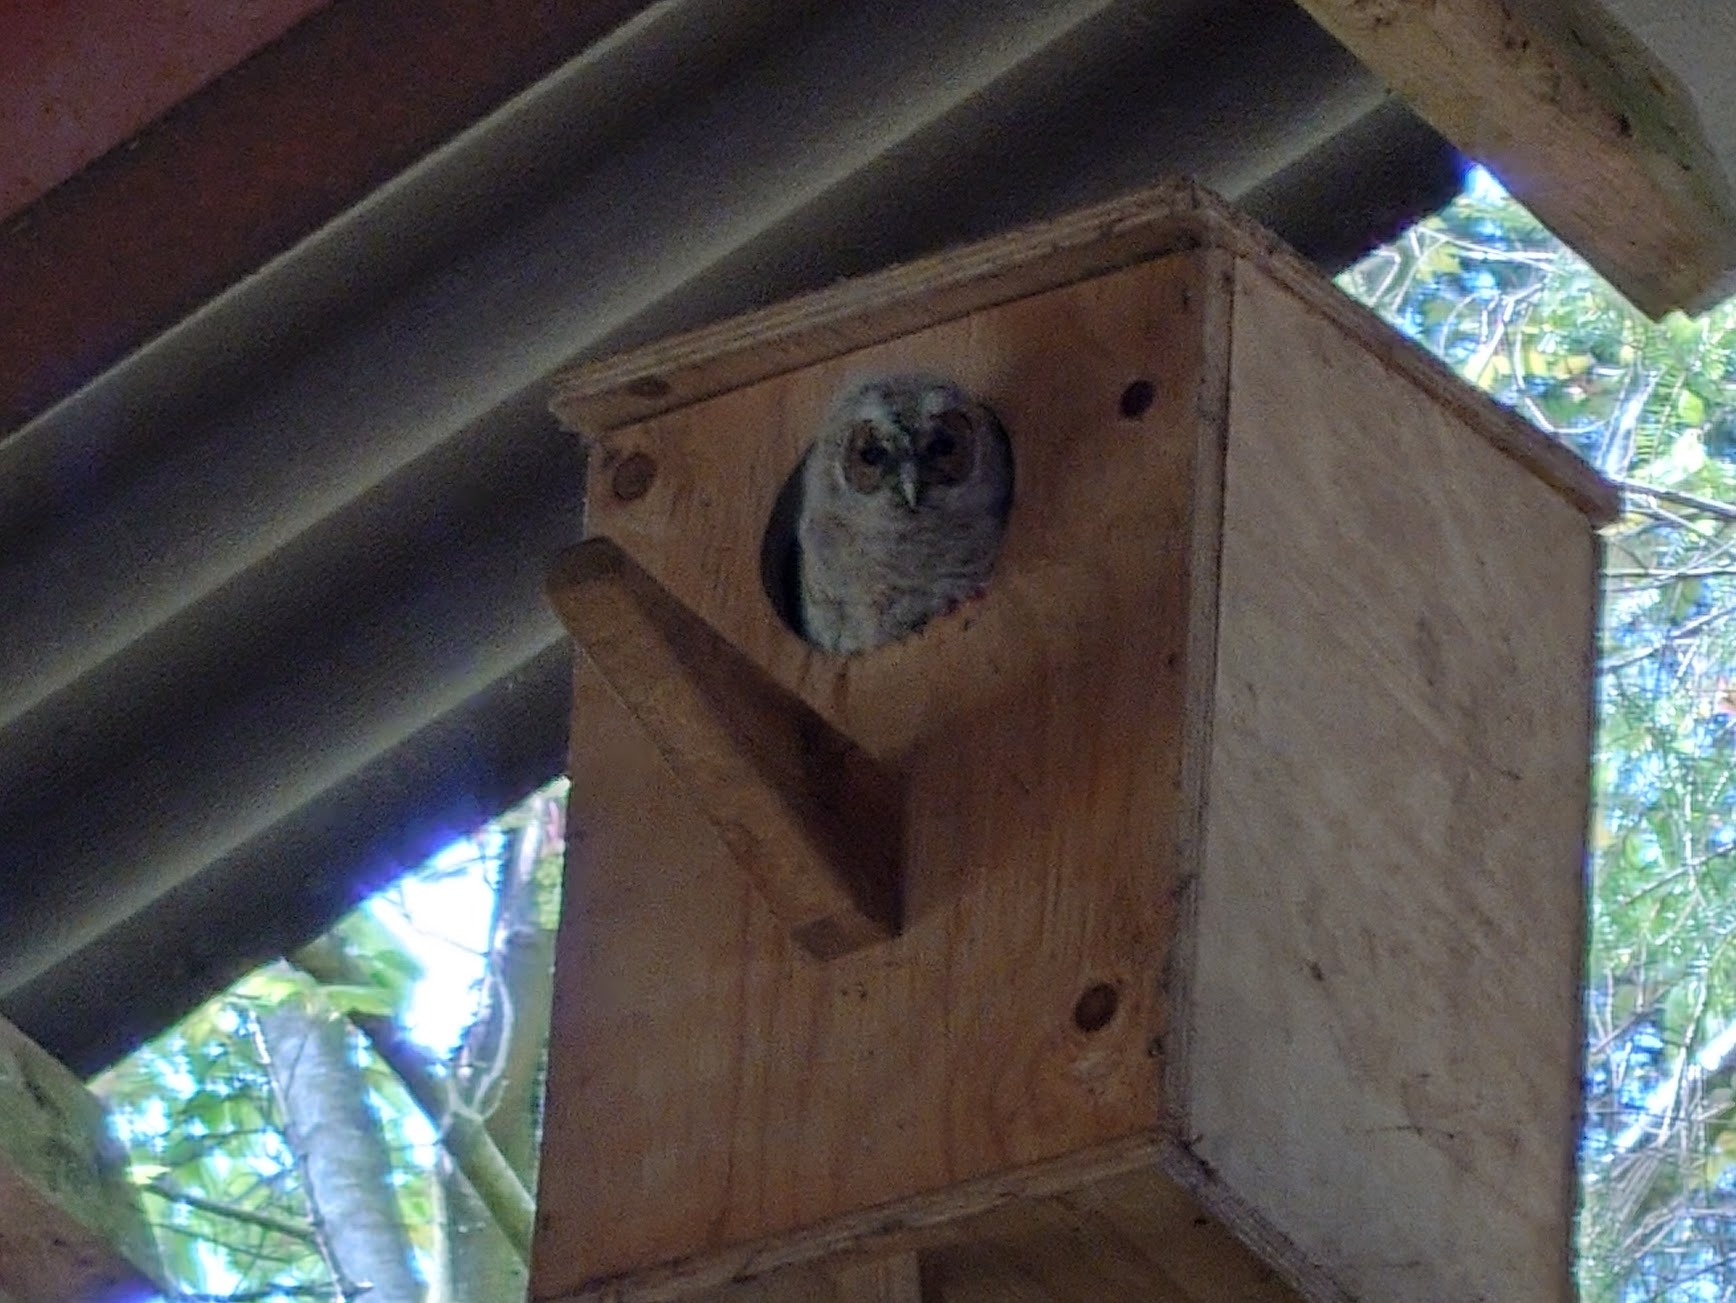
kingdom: Animalia
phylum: Chordata
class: Aves
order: Strigiformes
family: Strigidae
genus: Strix
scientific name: Strix aluco
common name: Natugle
